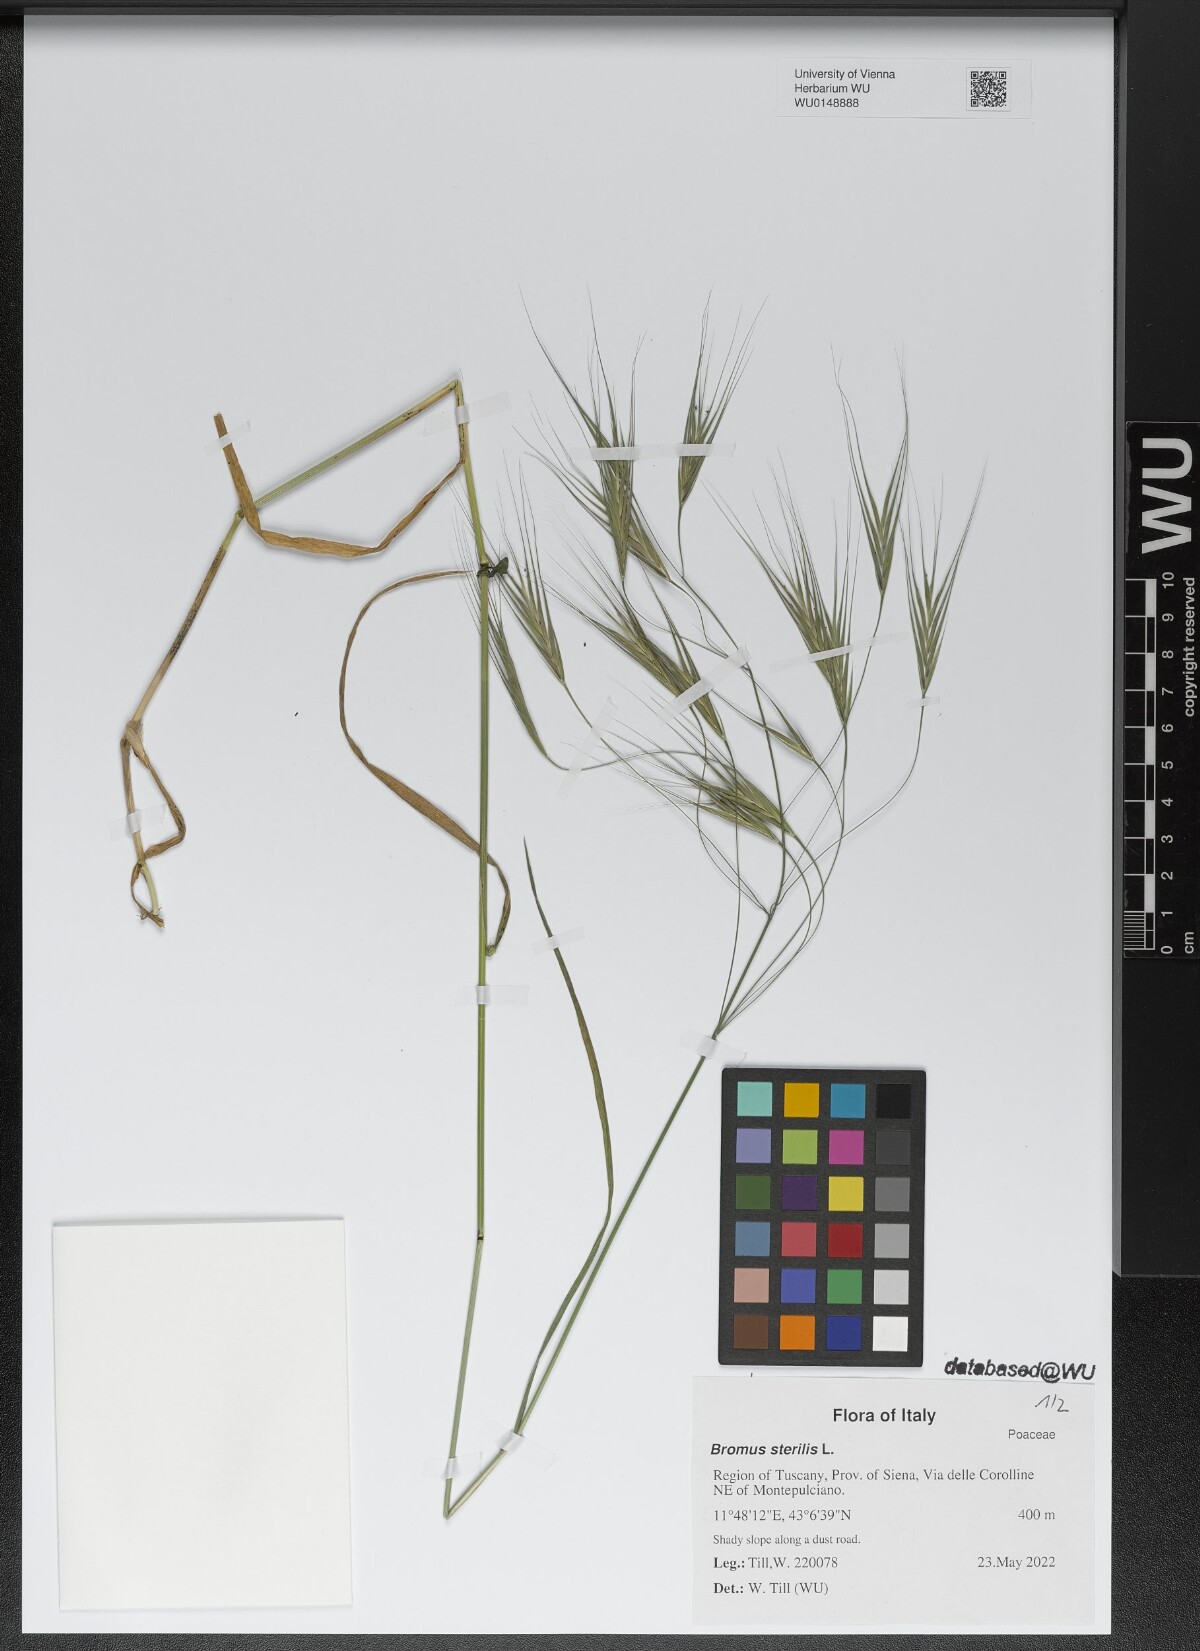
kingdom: Plantae
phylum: Tracheophyta
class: Liliopsida
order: Poales
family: Poaceae
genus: Bromus
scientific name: Bromus sterilis
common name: Poverty brome
